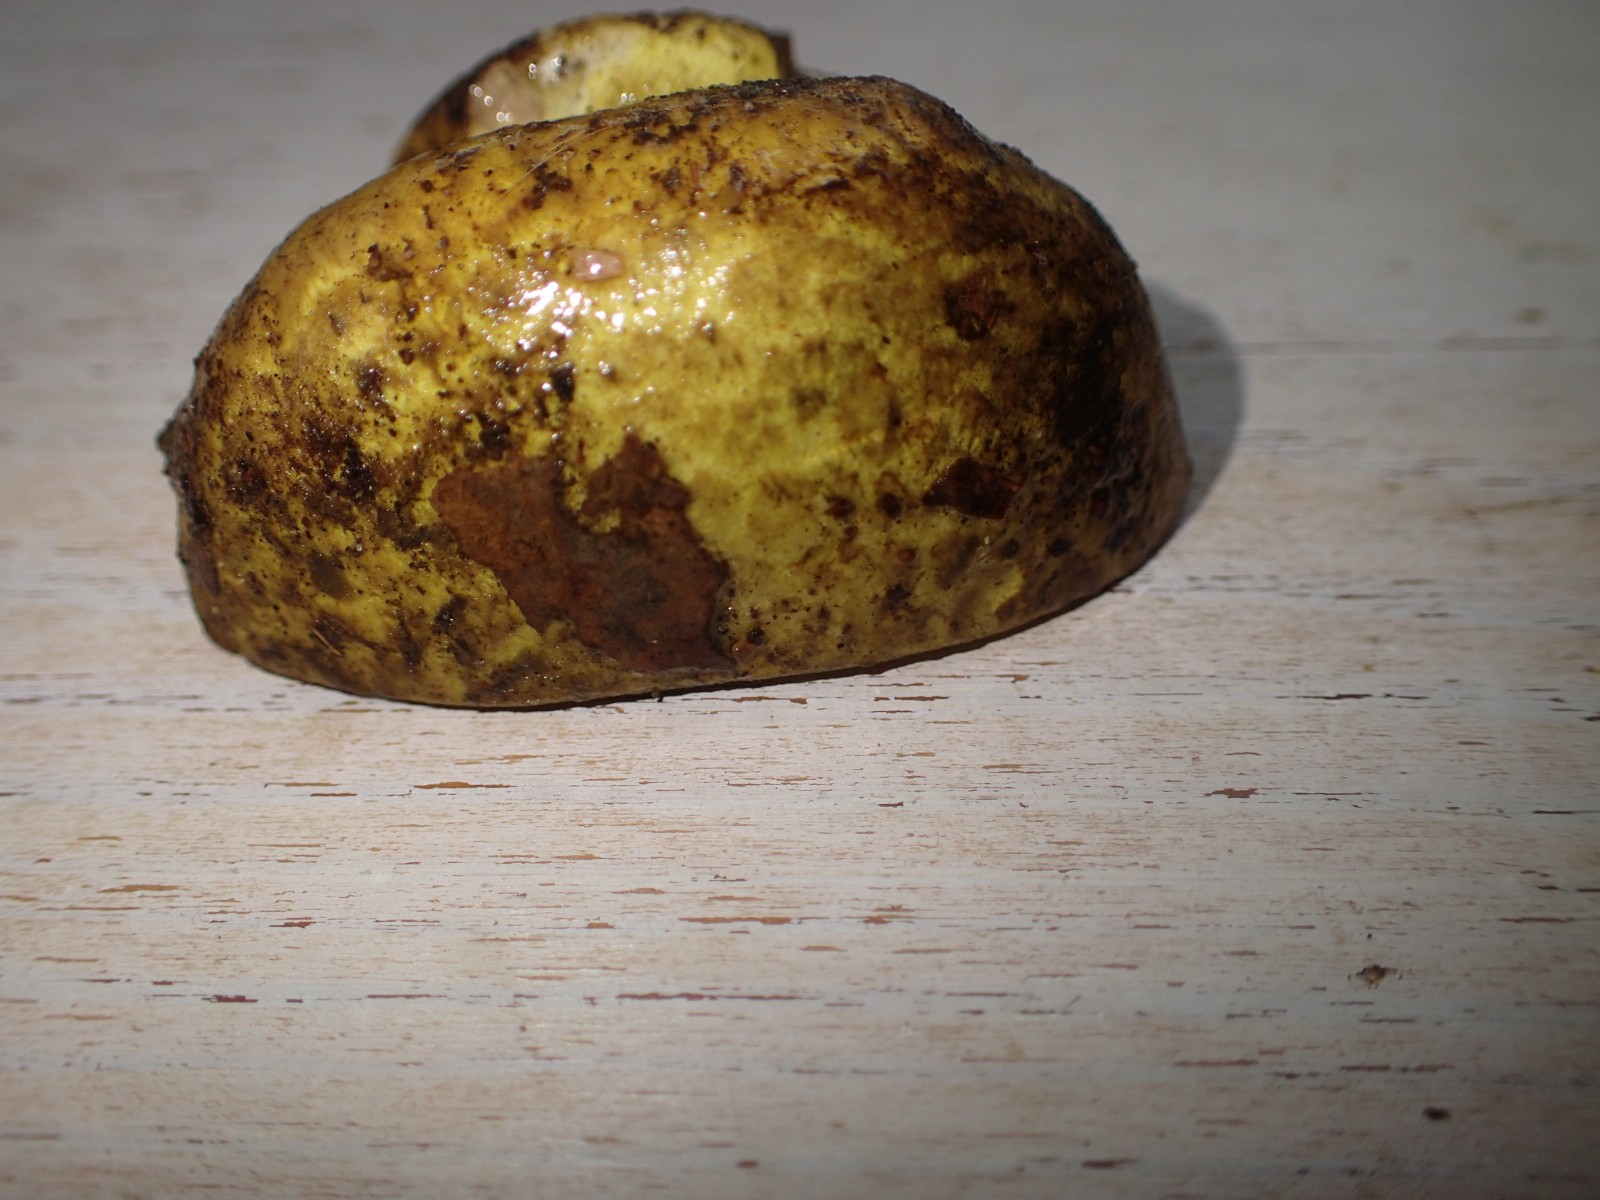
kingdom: Fungi
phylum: Basidiomycota
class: Agaricomycetes
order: Agaricales
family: Cortinariaceae
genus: Calonarius
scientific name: Calonarius citrinus
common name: citrongul slørhat
